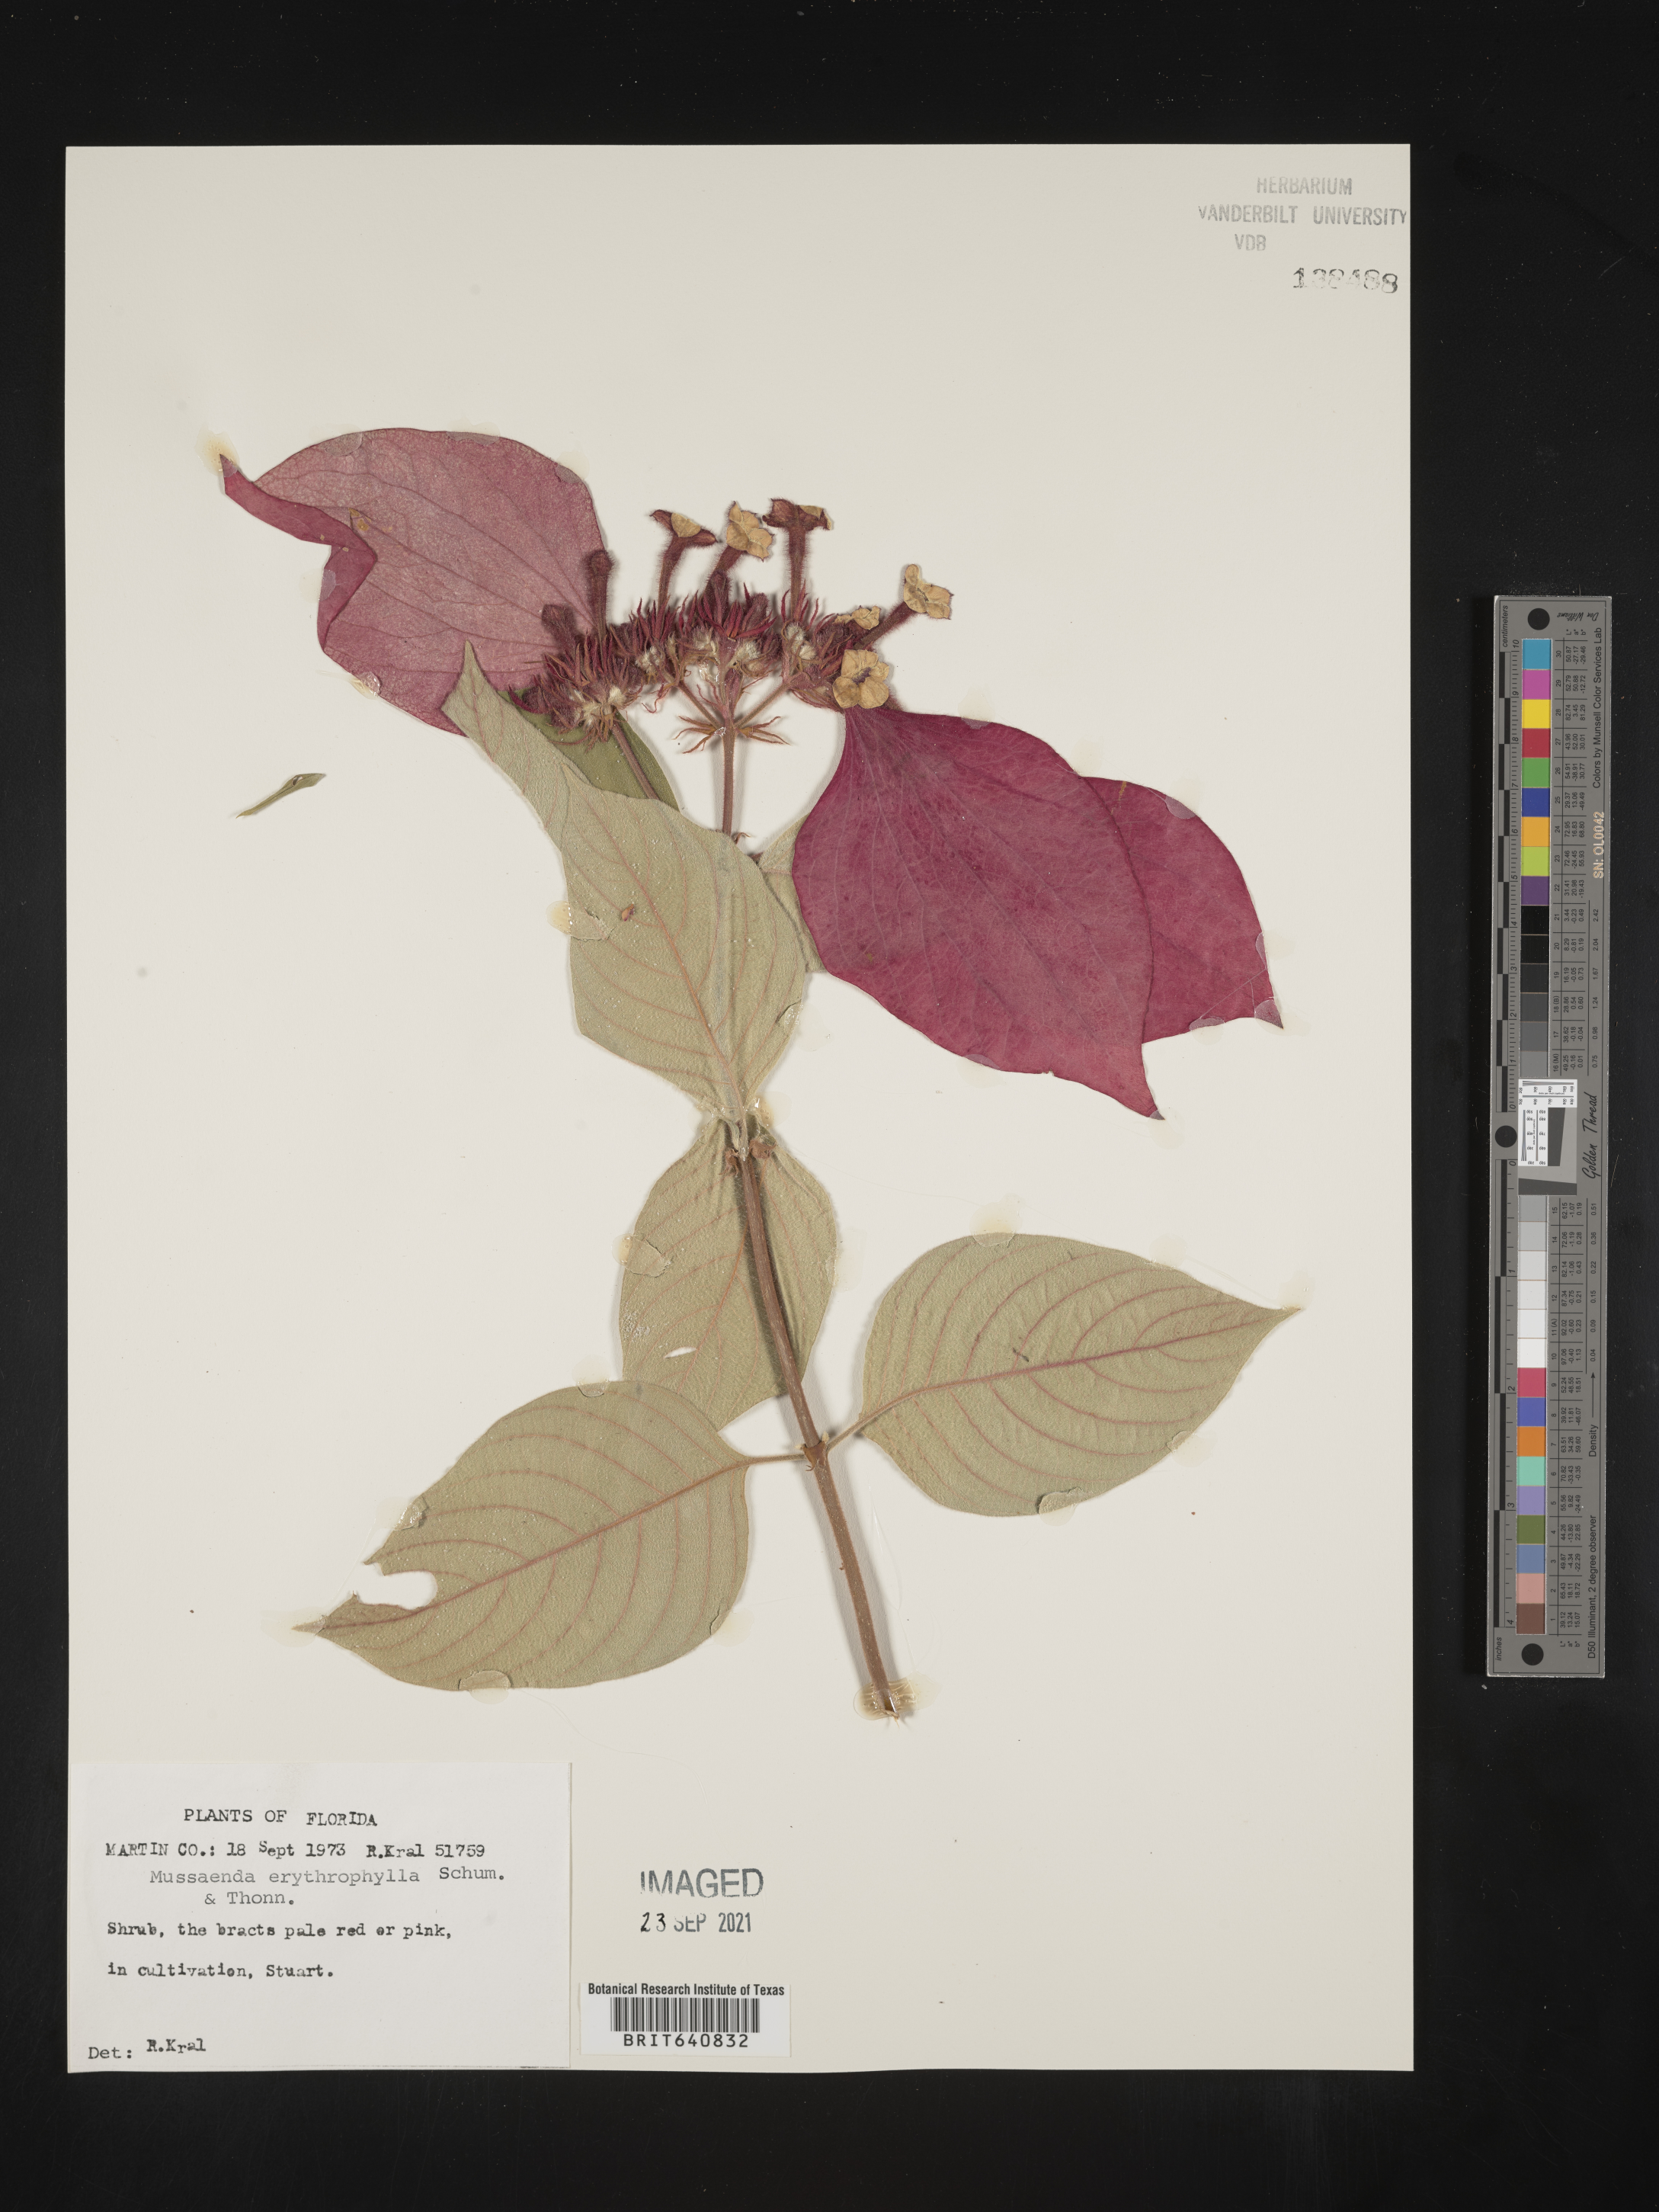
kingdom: Plantae
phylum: Tracheophyta
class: Magnoliopsida
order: Gentianales
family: Rubiaceae
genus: Mussaenda
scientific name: Mussaenda
